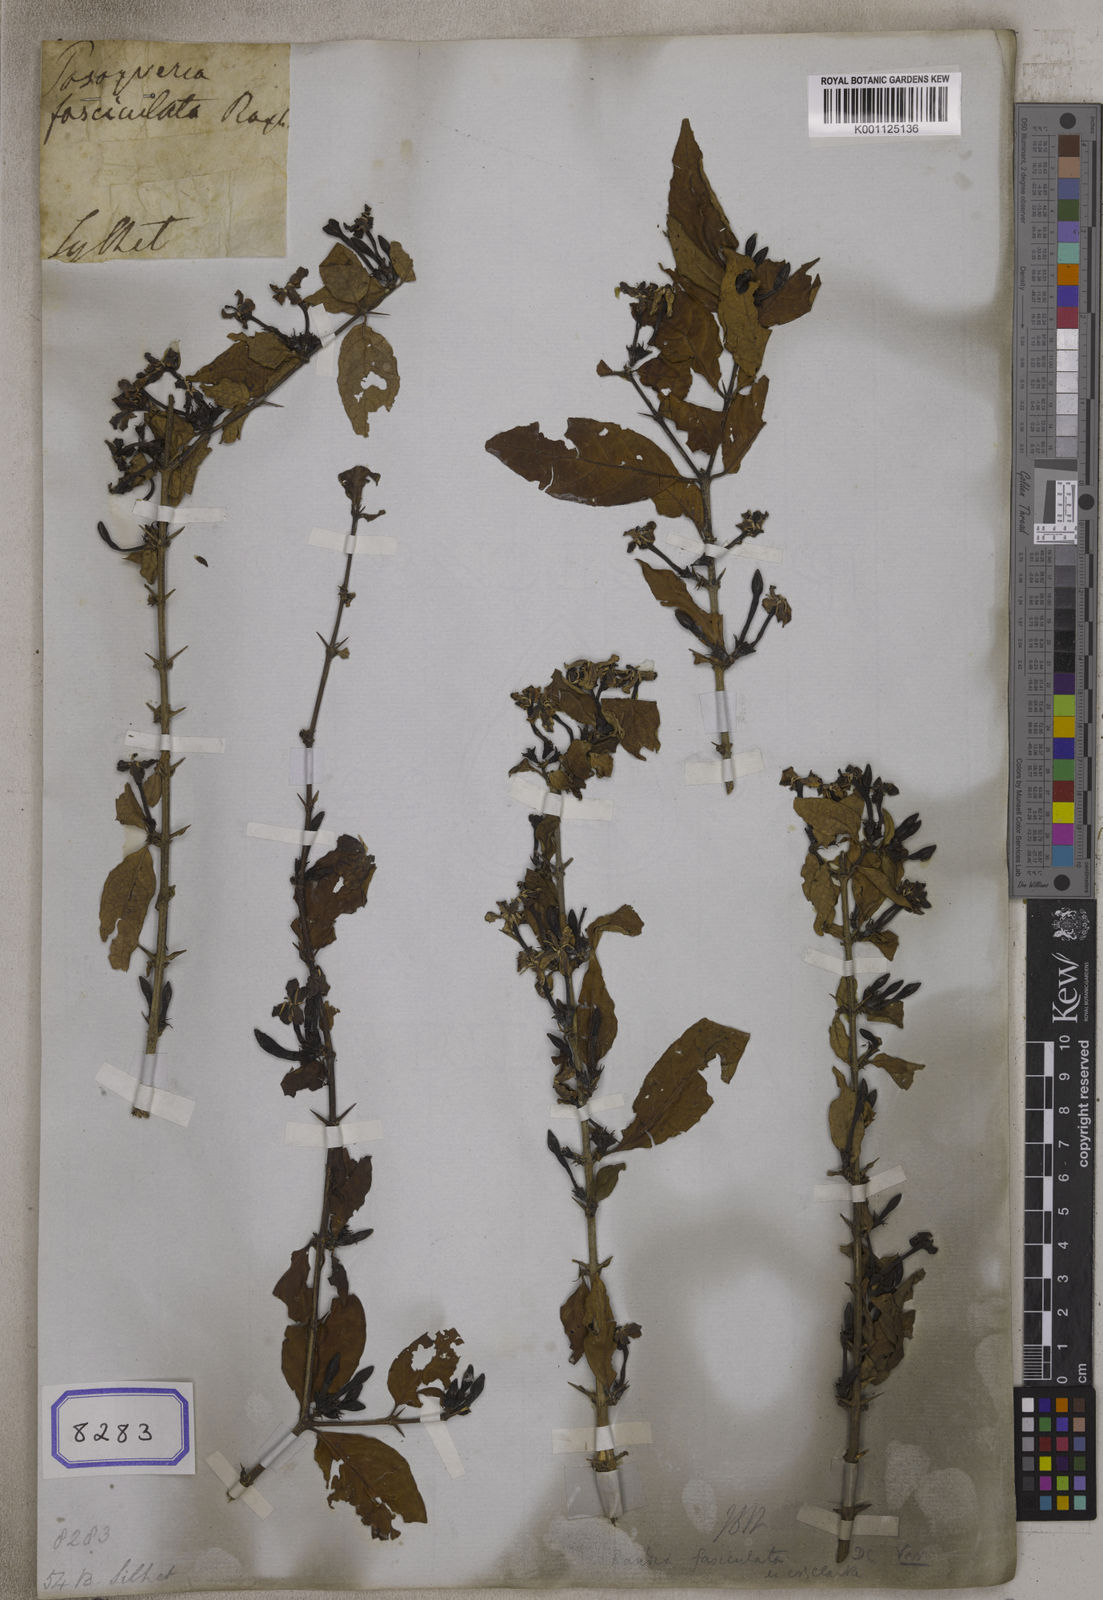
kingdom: Plantae
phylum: Tracheophyta
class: Magnoliopsida
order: Gentianales
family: Rubiaceae
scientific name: Rubiaceae
